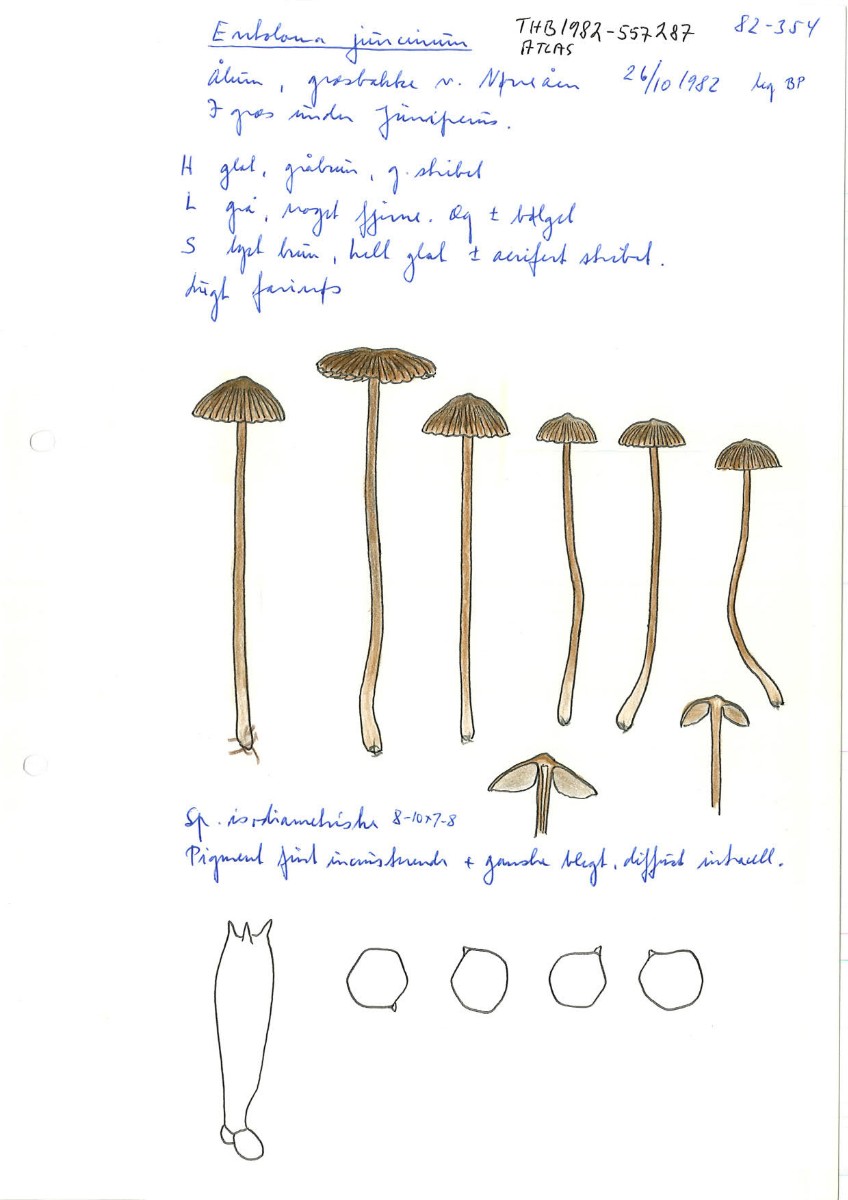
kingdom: Fungi
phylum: Basidiomycota
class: Agaricomycetes
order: Agaricales
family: Entolomataceae
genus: Entoloma
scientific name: Entoloma minutum
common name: liden rødblad
